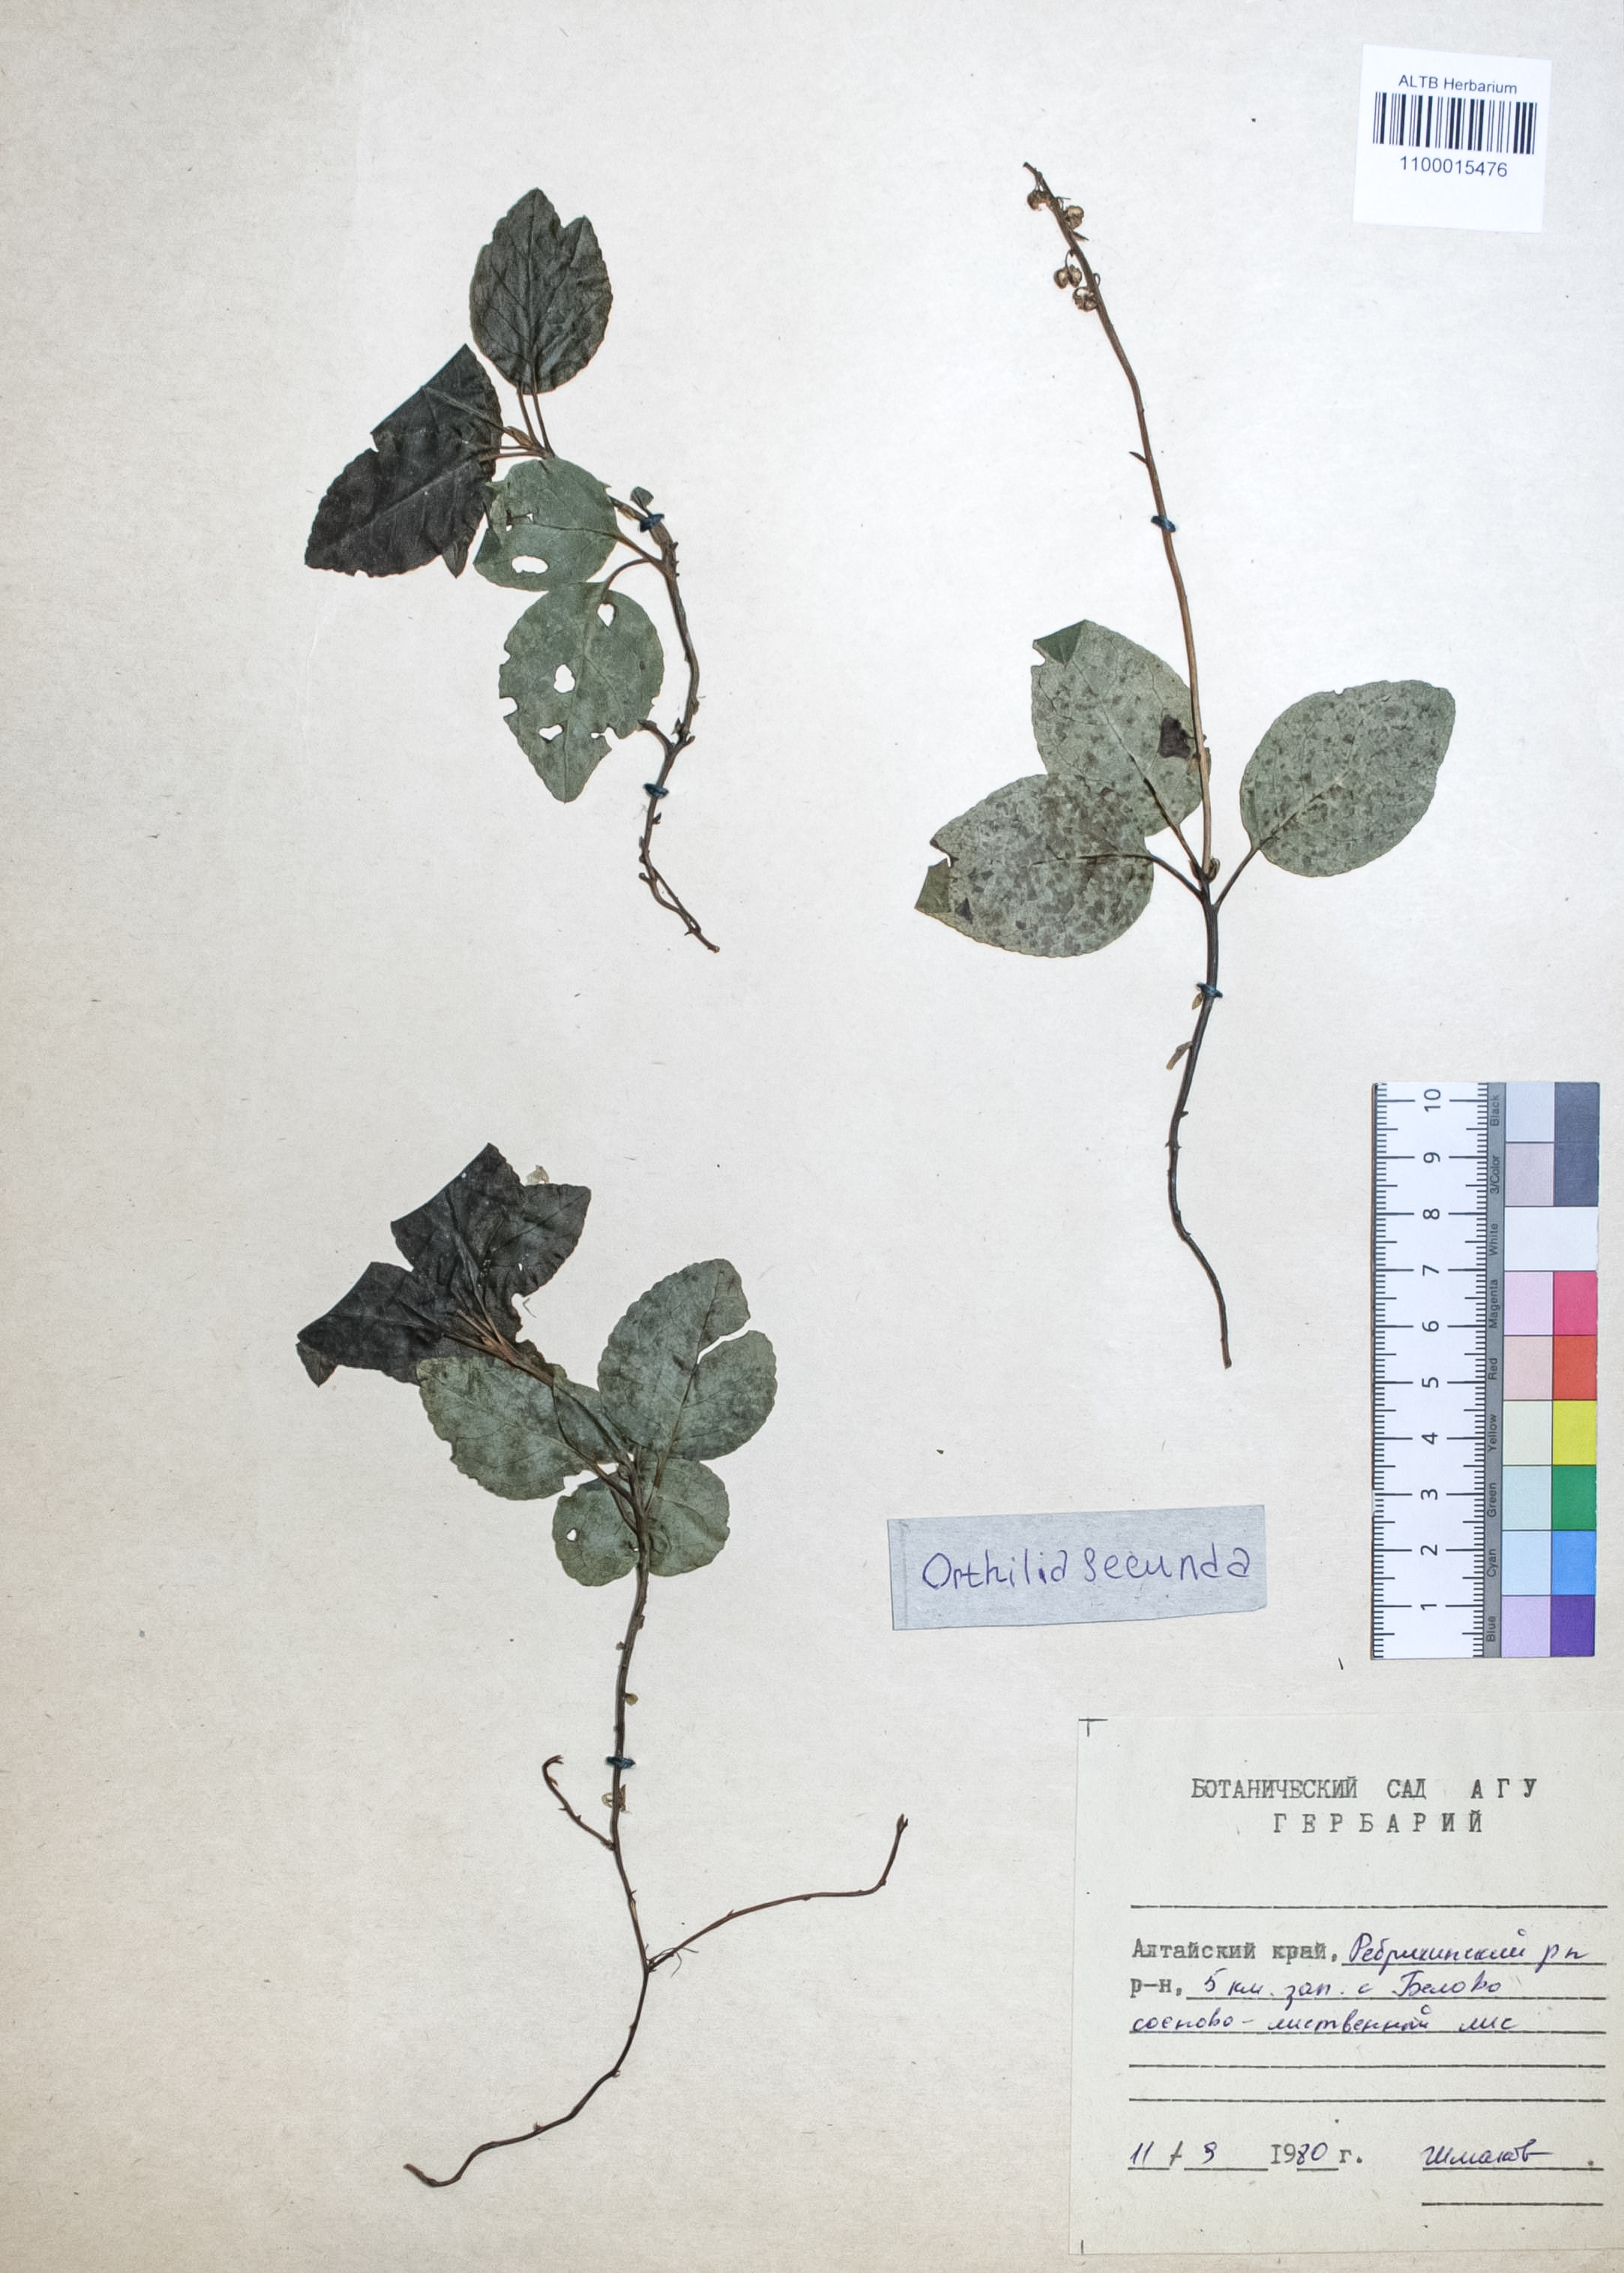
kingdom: Plantae
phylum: Tracheophyta
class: Magnoliopsida
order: Ericales
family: Ericaceae
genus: Orthilia
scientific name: Orthilia secunda
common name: One-sided orthilia
